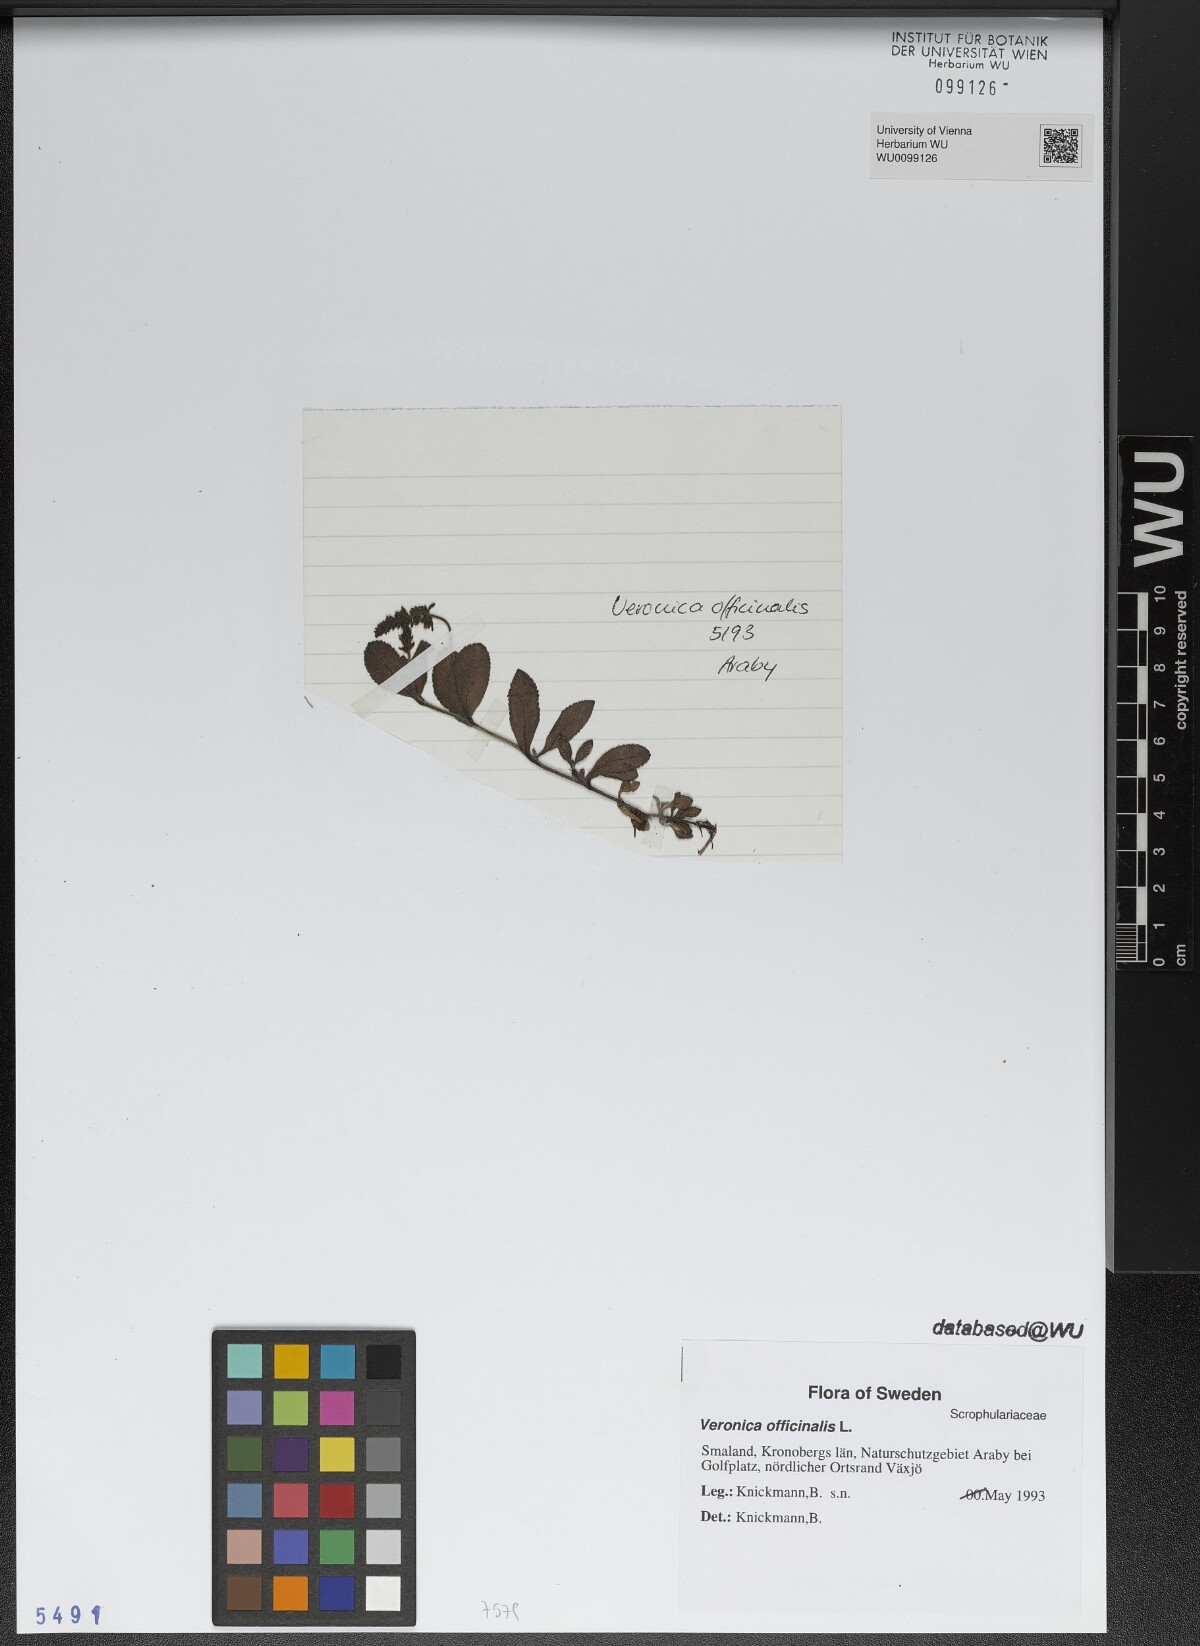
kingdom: Plantae
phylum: Tracheophyta
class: Magnoliopsida
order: Lamiales
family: Plantaginaceae
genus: Veronica
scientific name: Veronica officinalis
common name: Common speedwell
